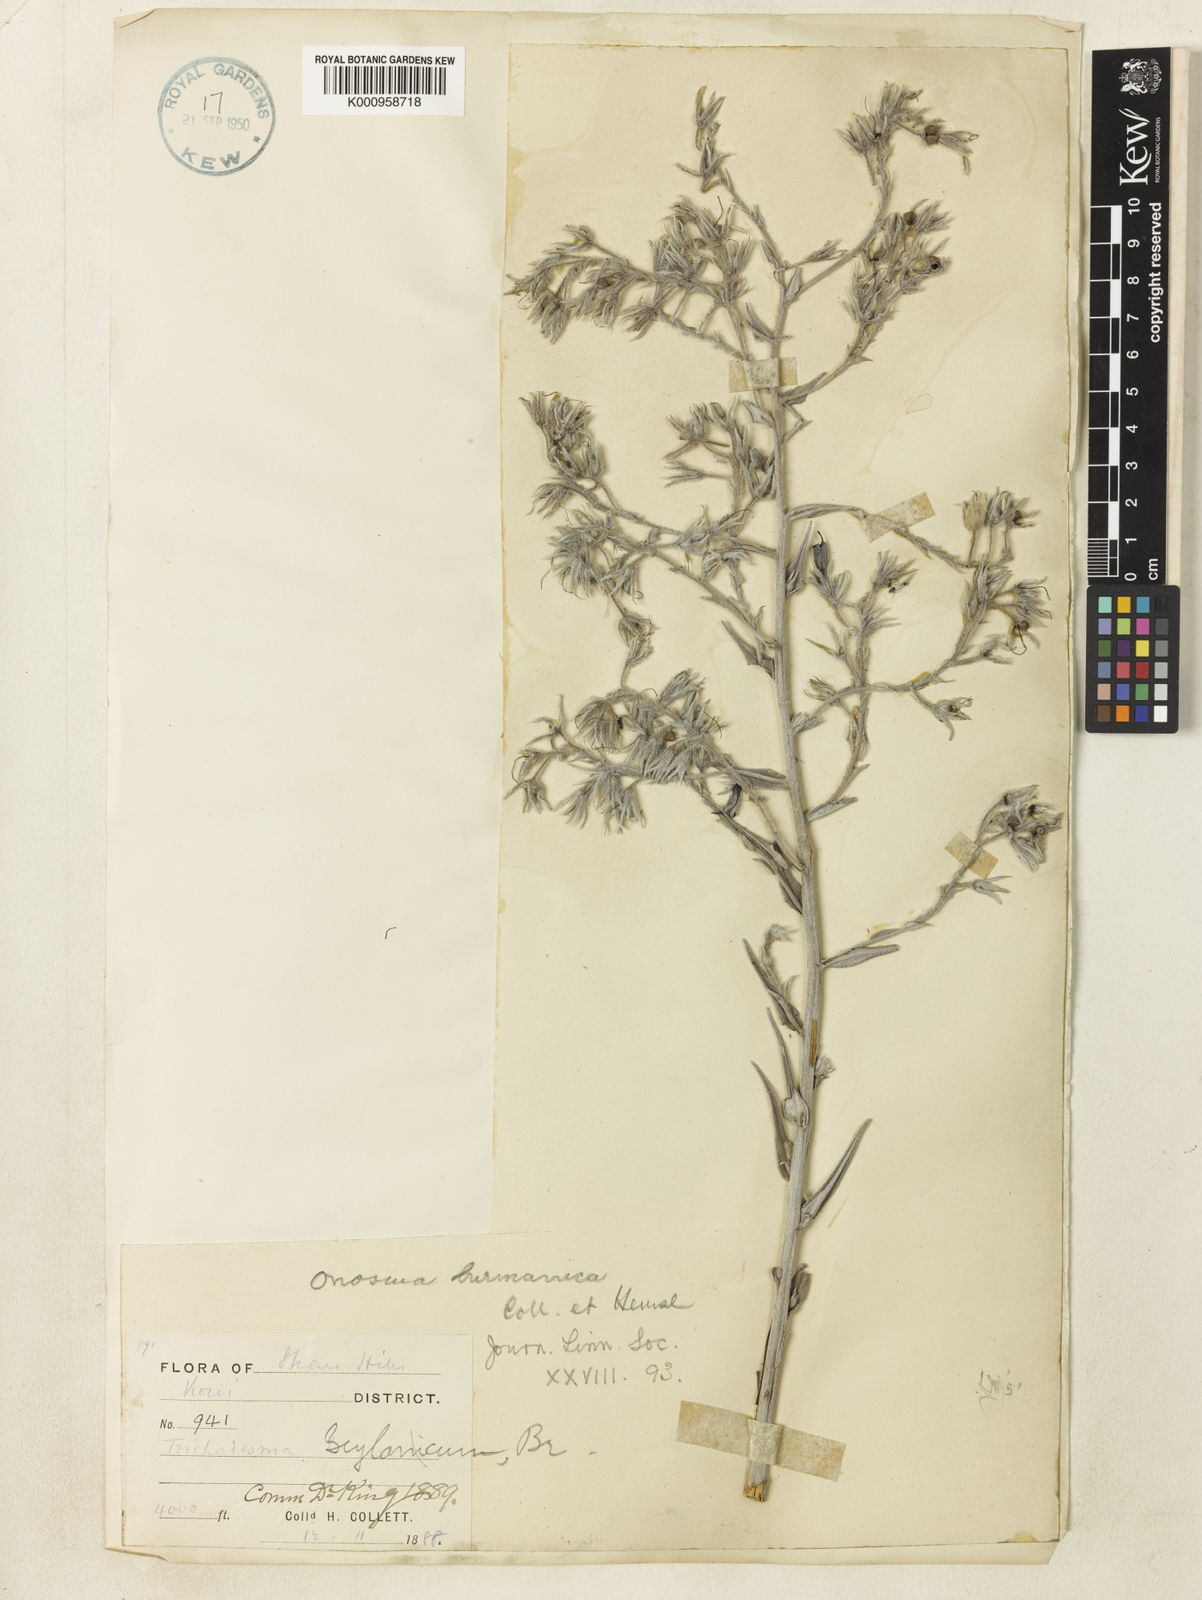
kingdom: Plantae
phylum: Tracheophyta
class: Magnoliopsida
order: Boraginales
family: Boraginaceae
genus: Maharanga
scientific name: Maharanga burmanica
